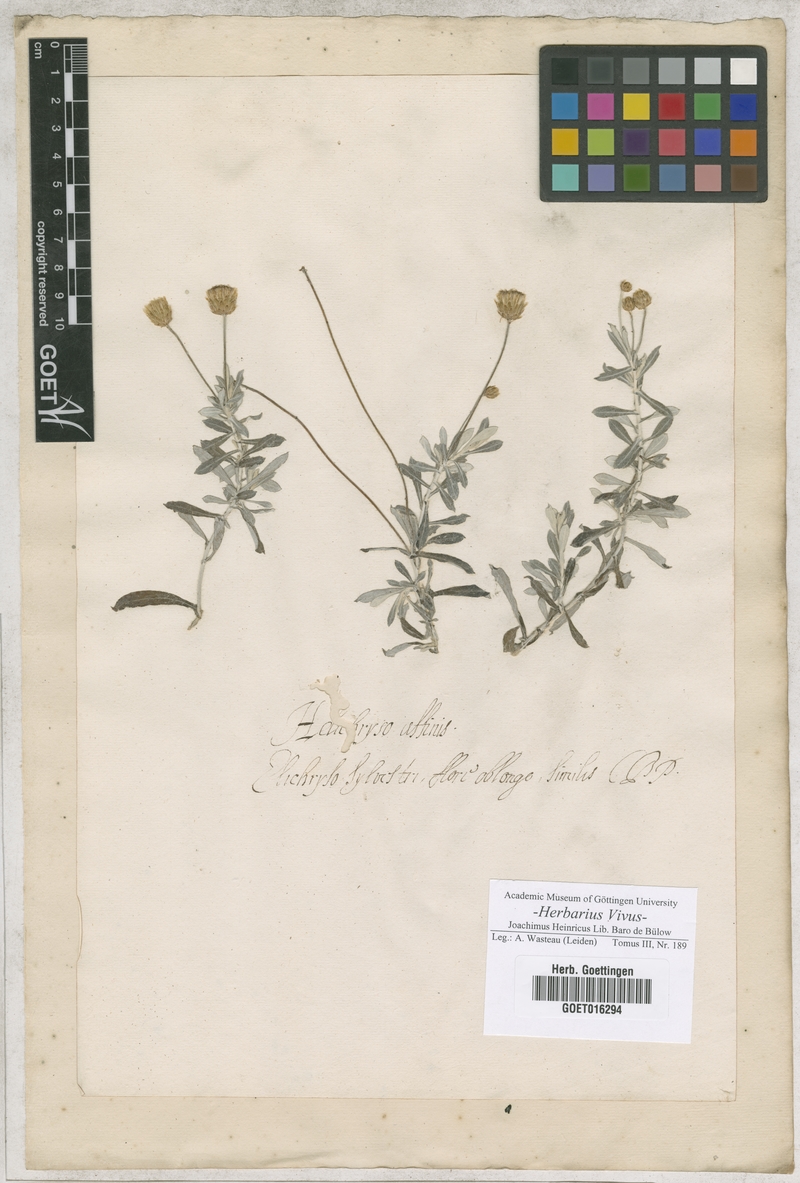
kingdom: Plantae
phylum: Tracheophyta
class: Magnoliopsida
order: Asterales
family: Asteraceae
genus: Phagnalon
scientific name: Phagnalon saxatile
